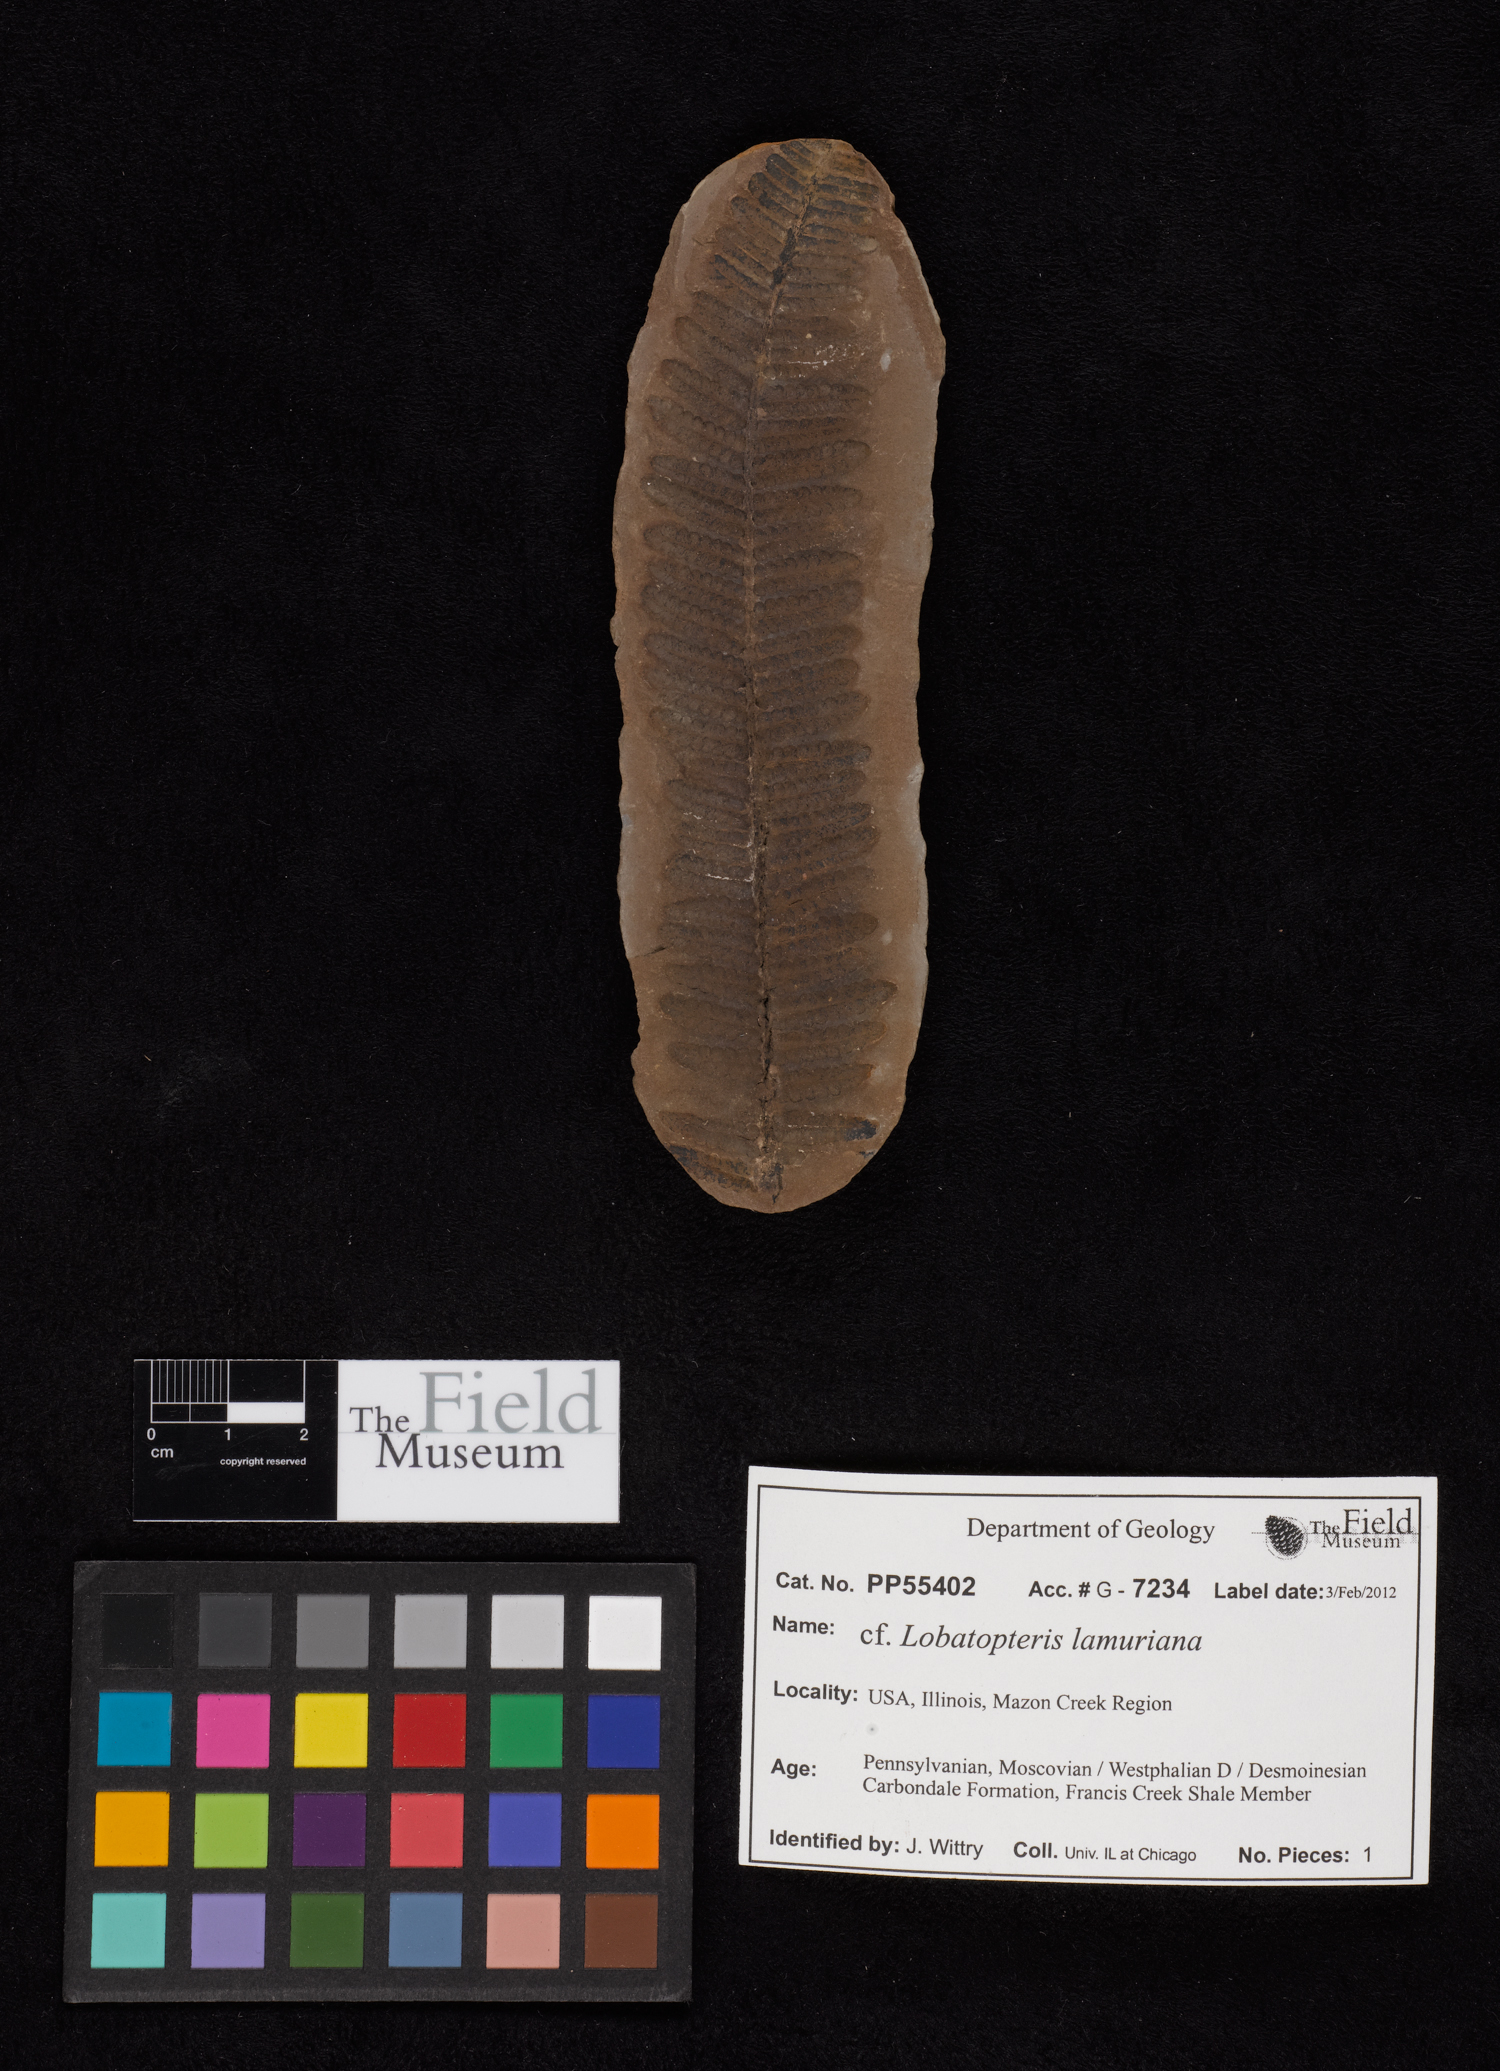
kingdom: Plantae
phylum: Tracheophyta
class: Polypodiopsida
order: Marattiales
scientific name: Marattiales
